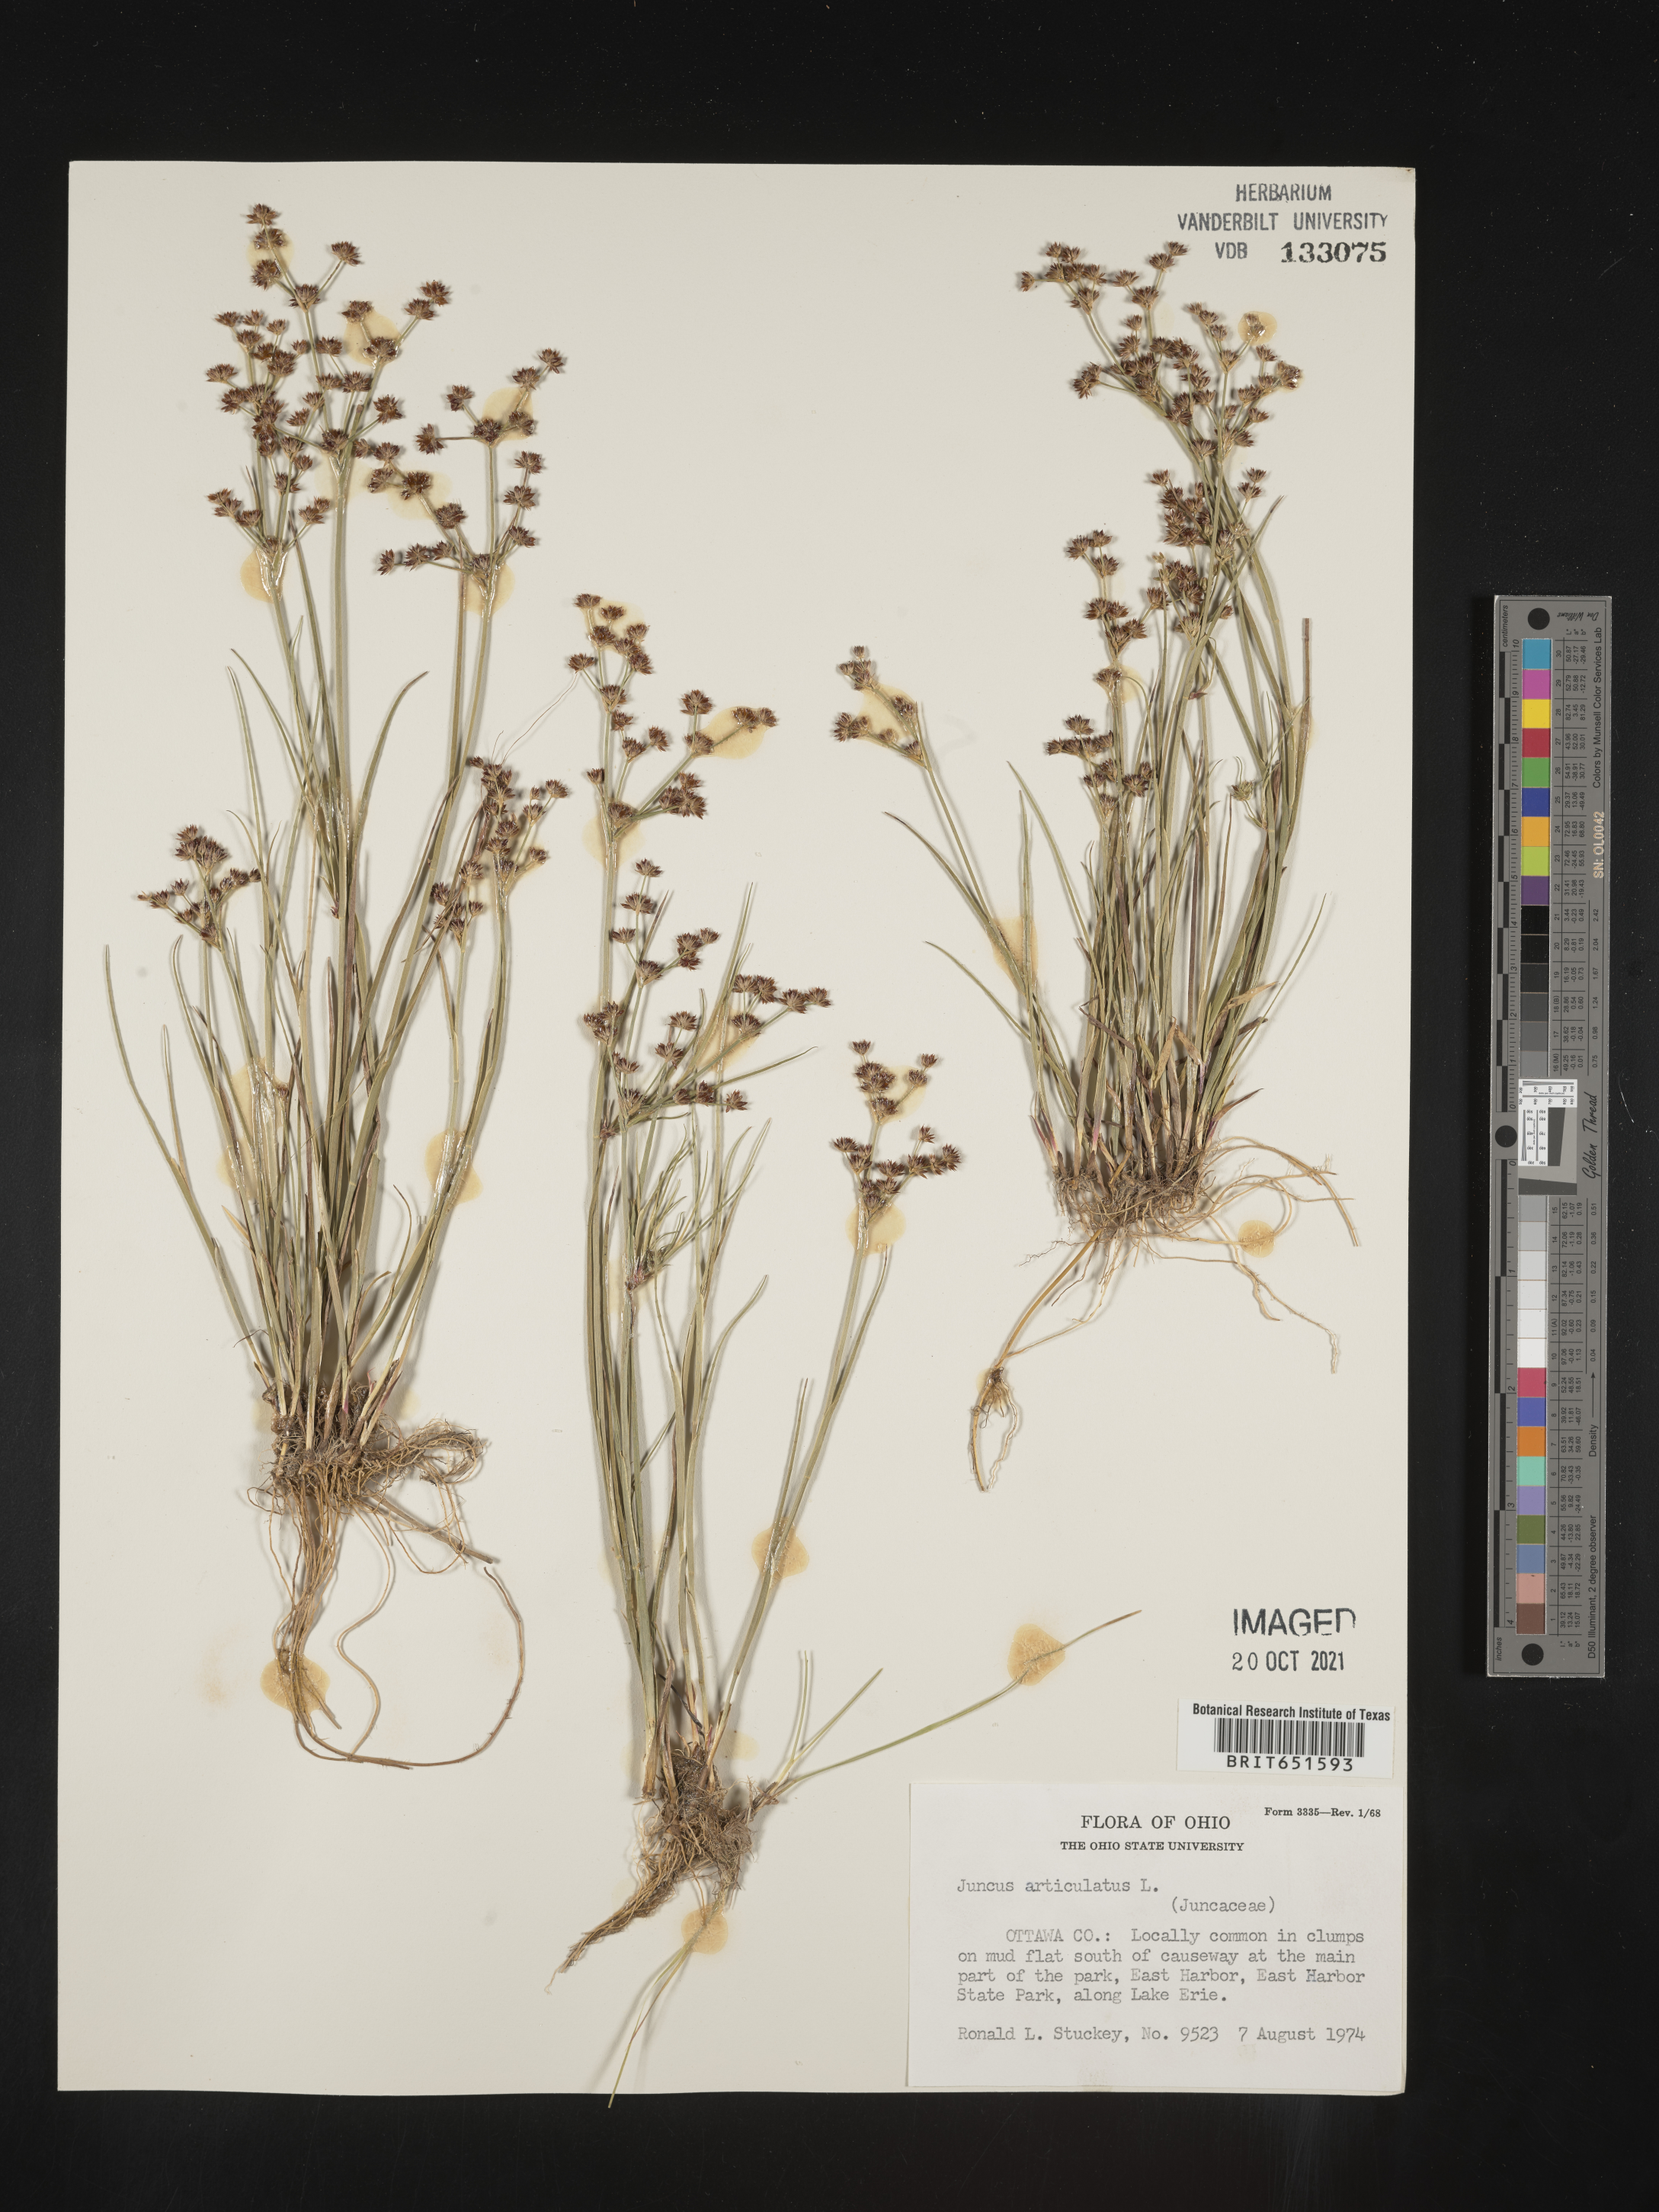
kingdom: Plantae
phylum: Tracheophyta
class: Liliopsida
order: Poales
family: Juncaceae
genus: Juncus
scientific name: Juncus articulatus
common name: Jointed rush
